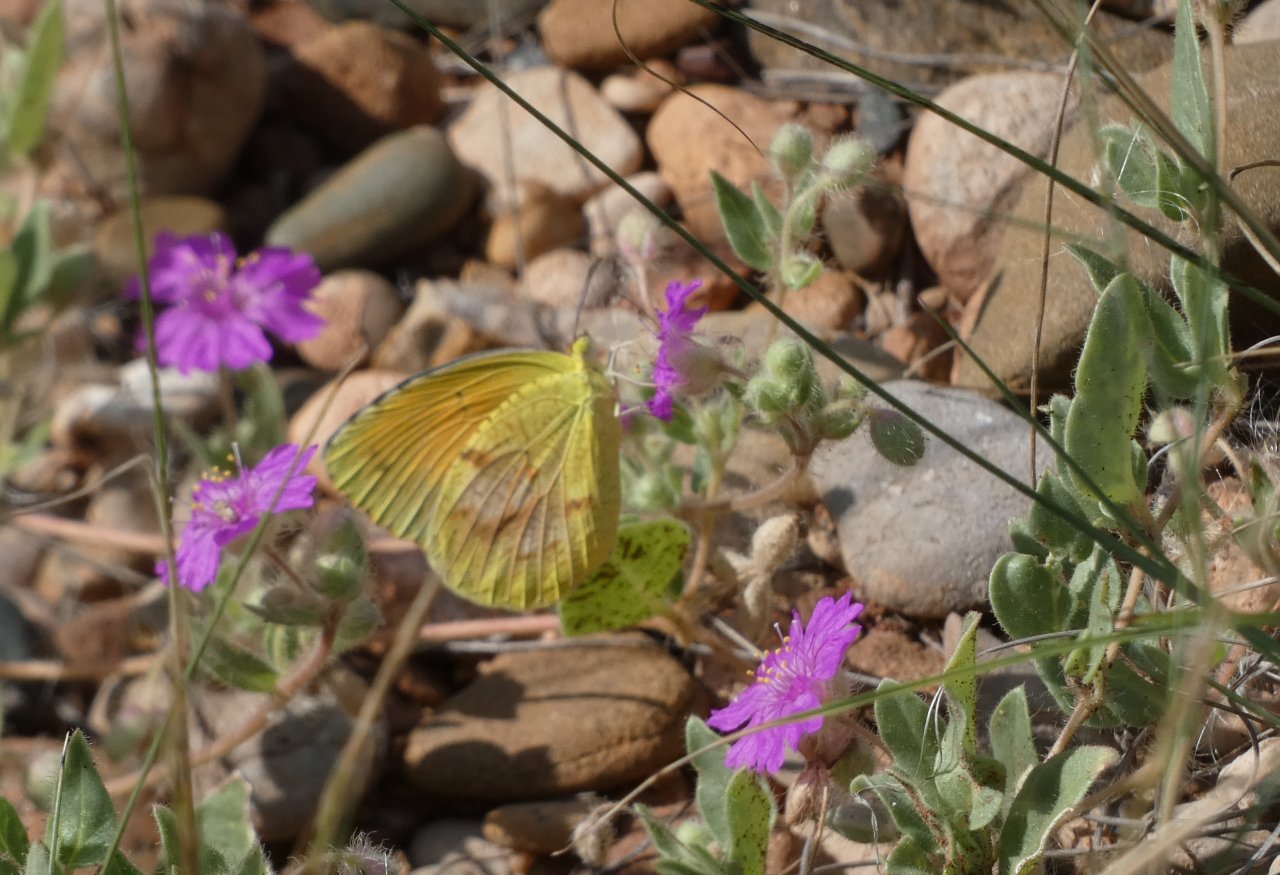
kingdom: Animalia
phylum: Arthropoda
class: Insecta
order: Lepidoptera
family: Pieridae
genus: Abaeis
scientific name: Abaeis nicippe
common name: Sleepy Orange
